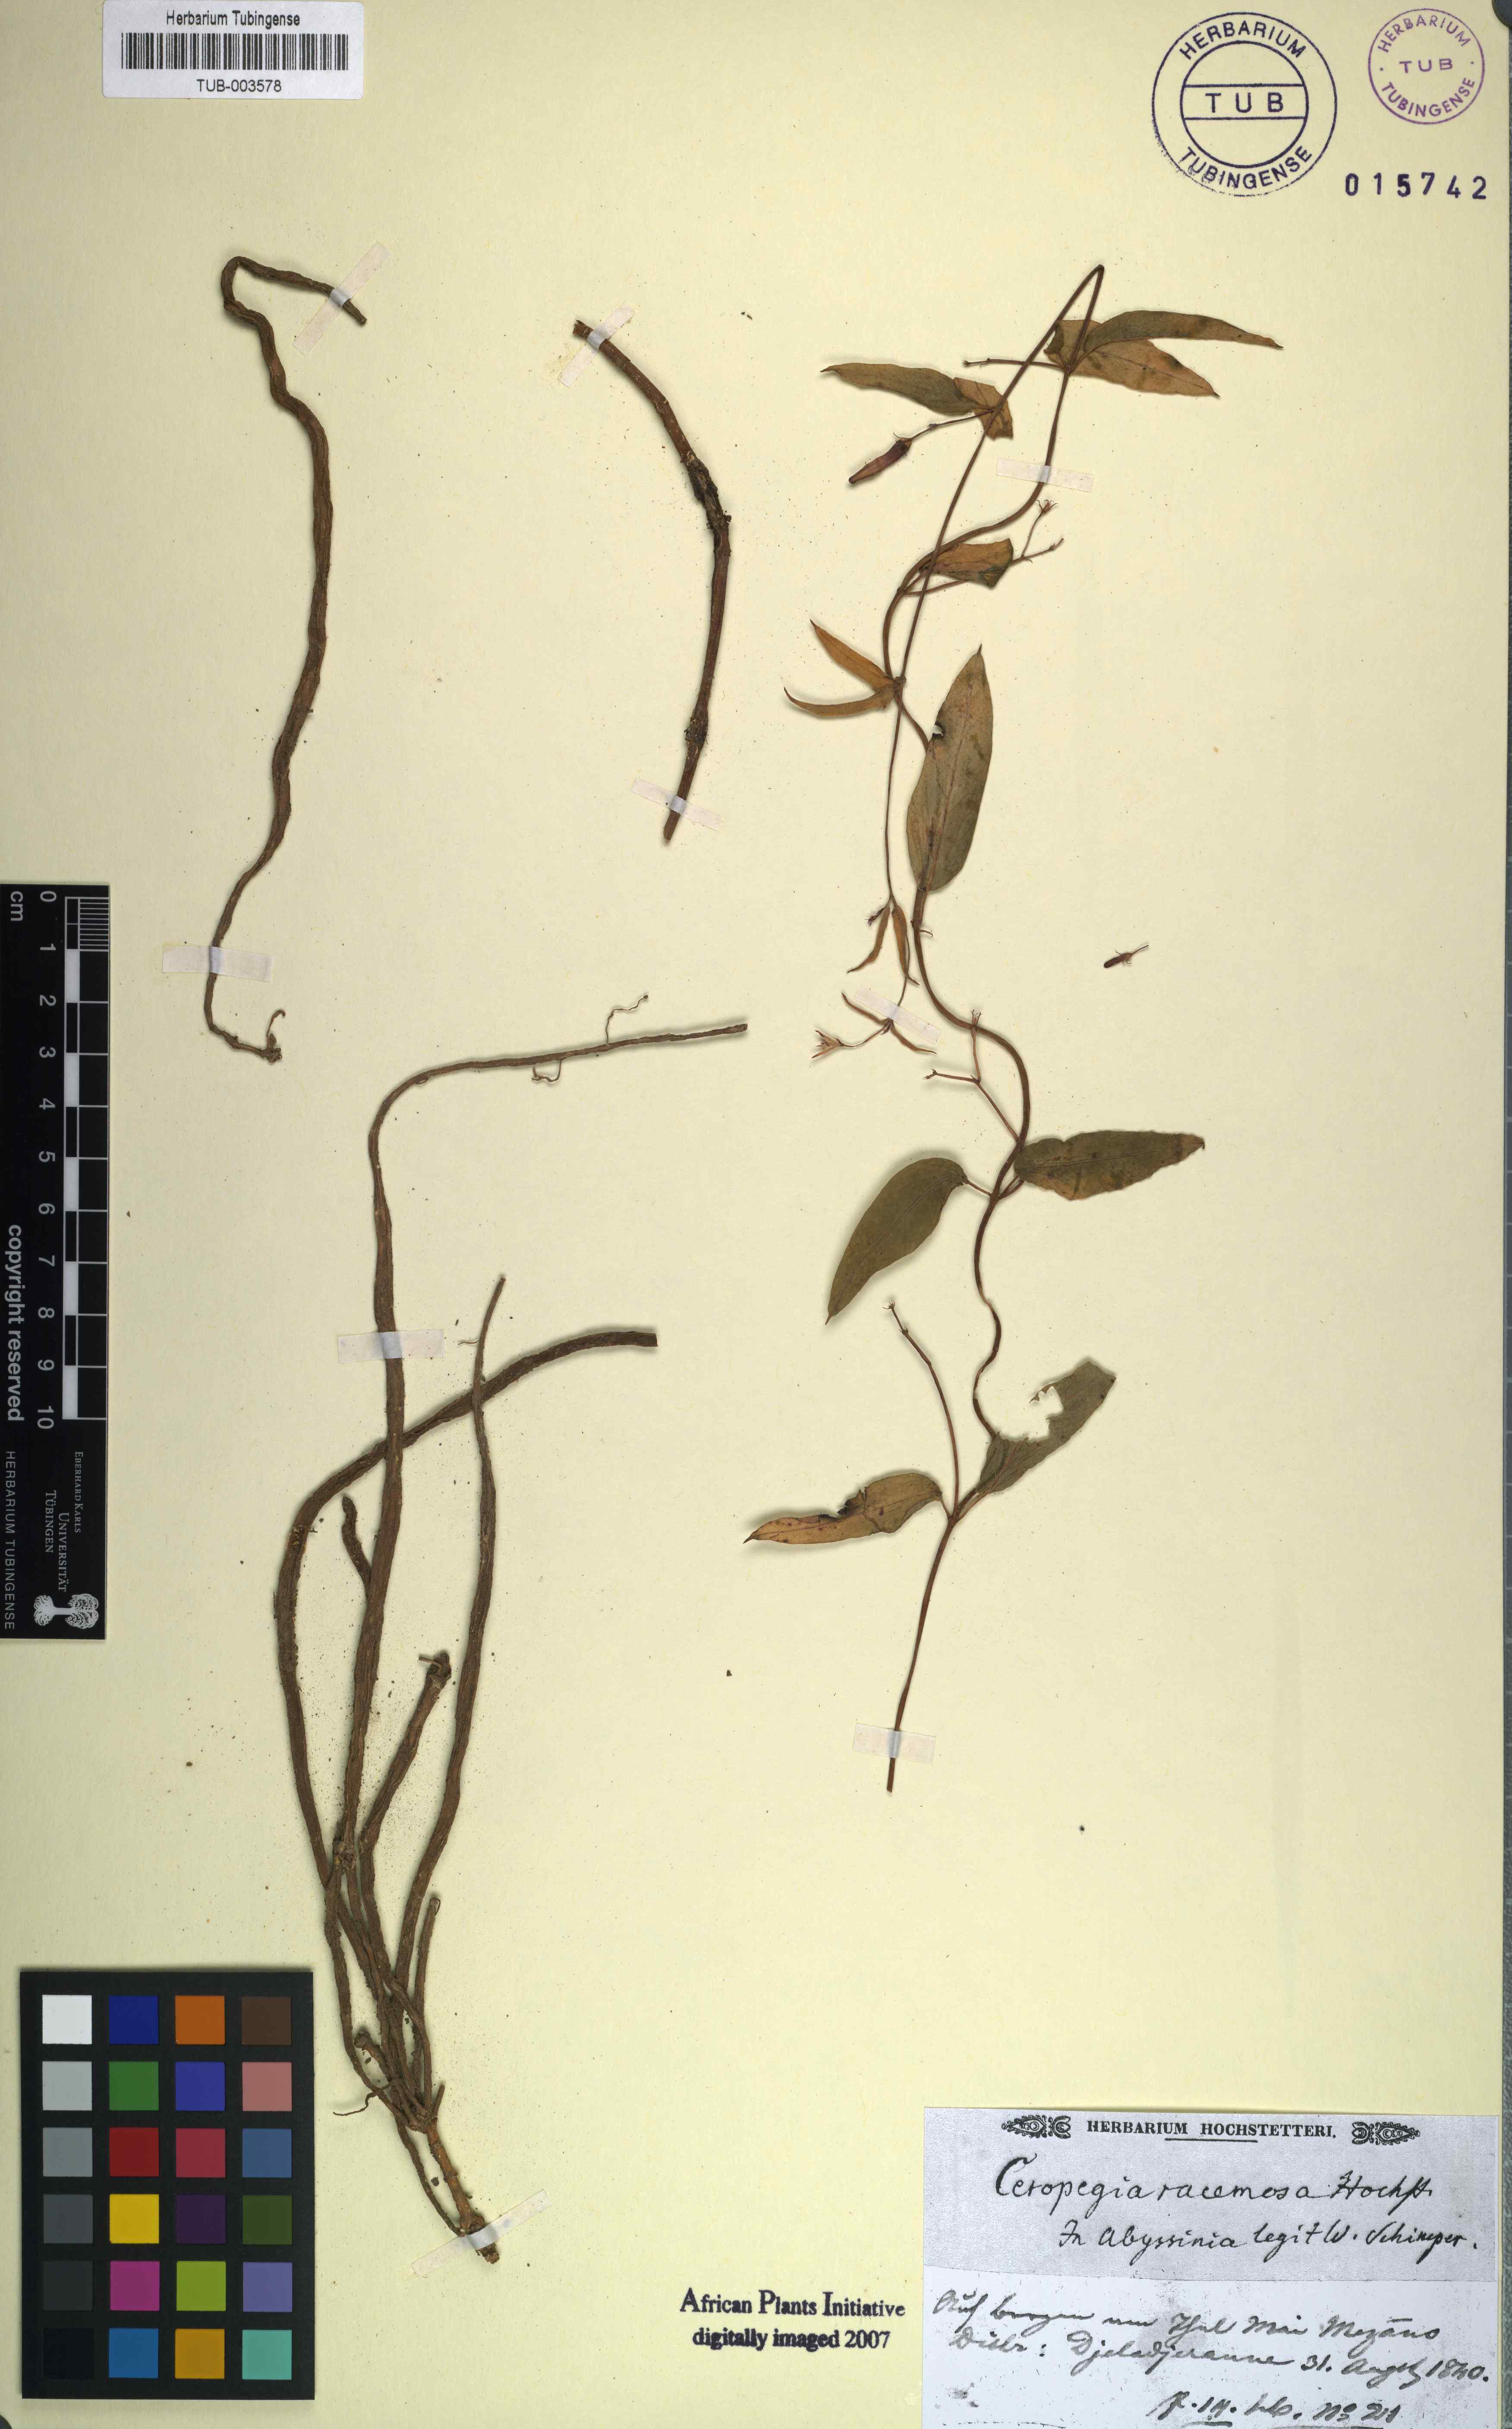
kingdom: Plantae
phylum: Tracheophyta
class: Magnoliopsida
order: Gentianales
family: Apocynaceae
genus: Ceropegia
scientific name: Ceropegia racemosa
